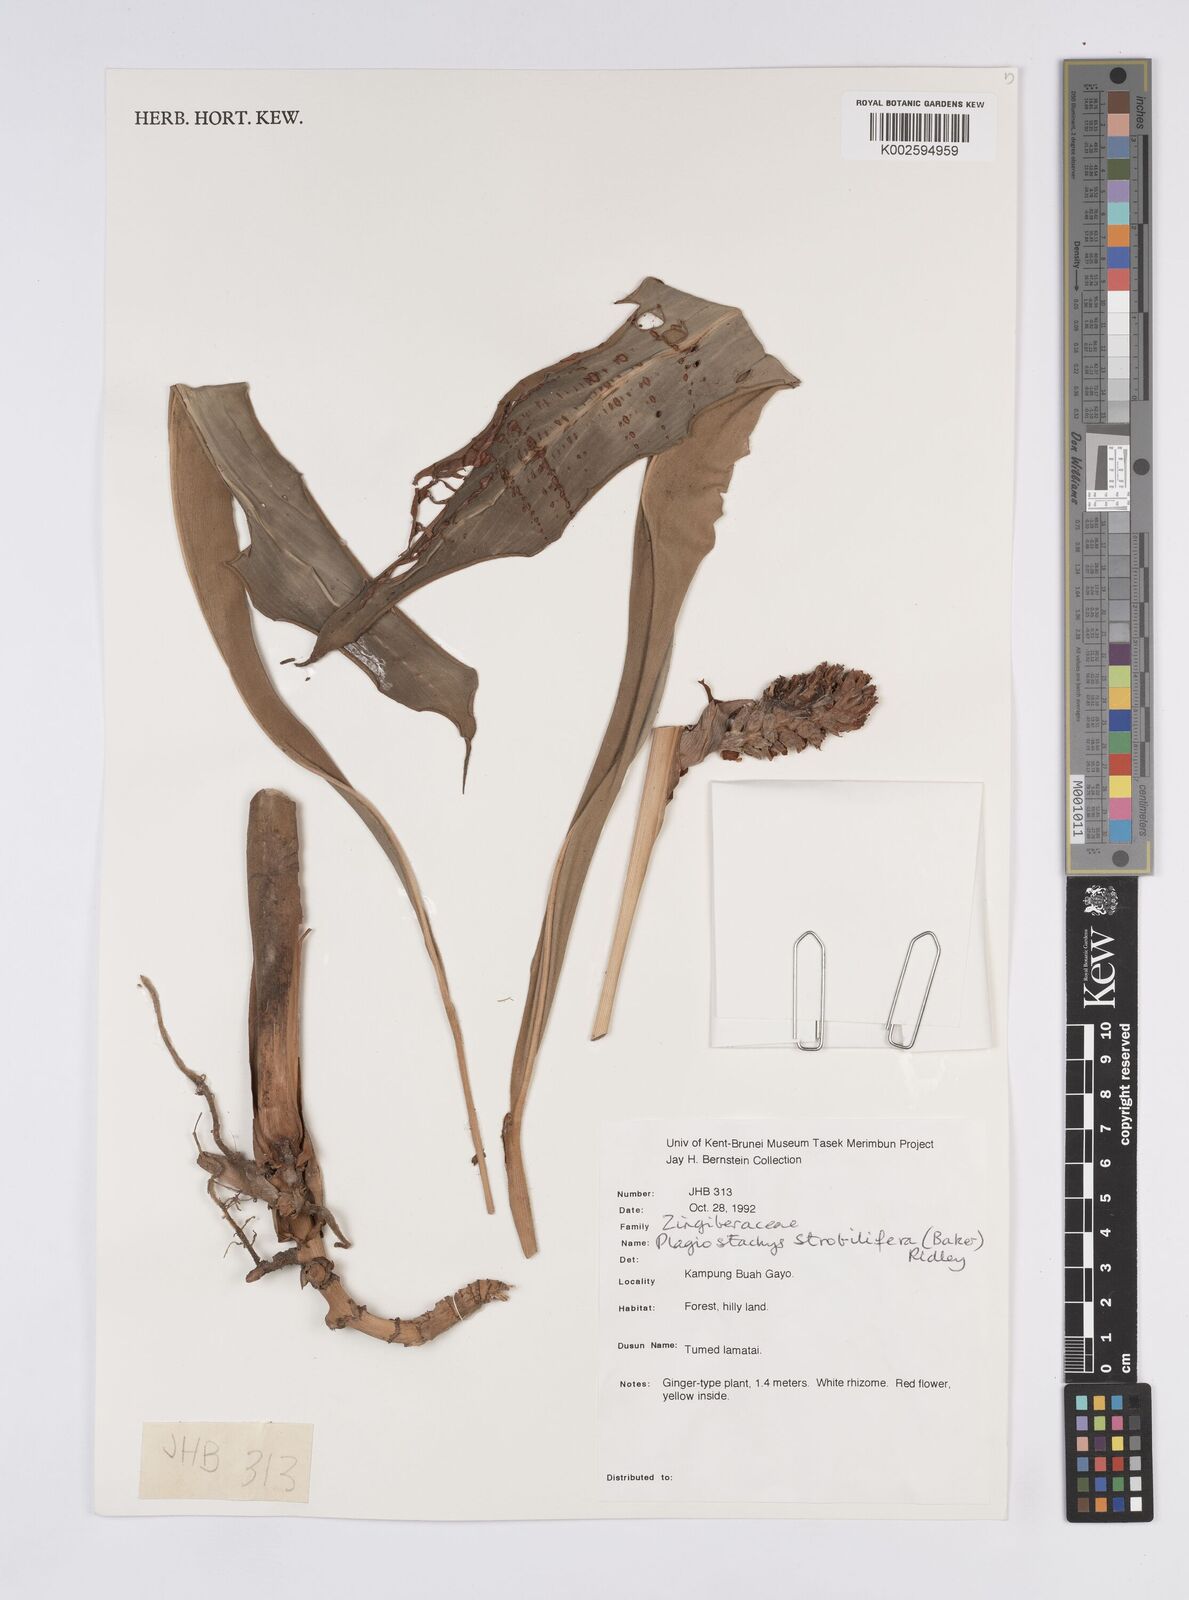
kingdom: Plantae
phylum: Tracheophyta
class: Liliopsida
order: Zingiberales
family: Zingiberaceae
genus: Plagiostachys
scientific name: Plagiostachys strobilifera
